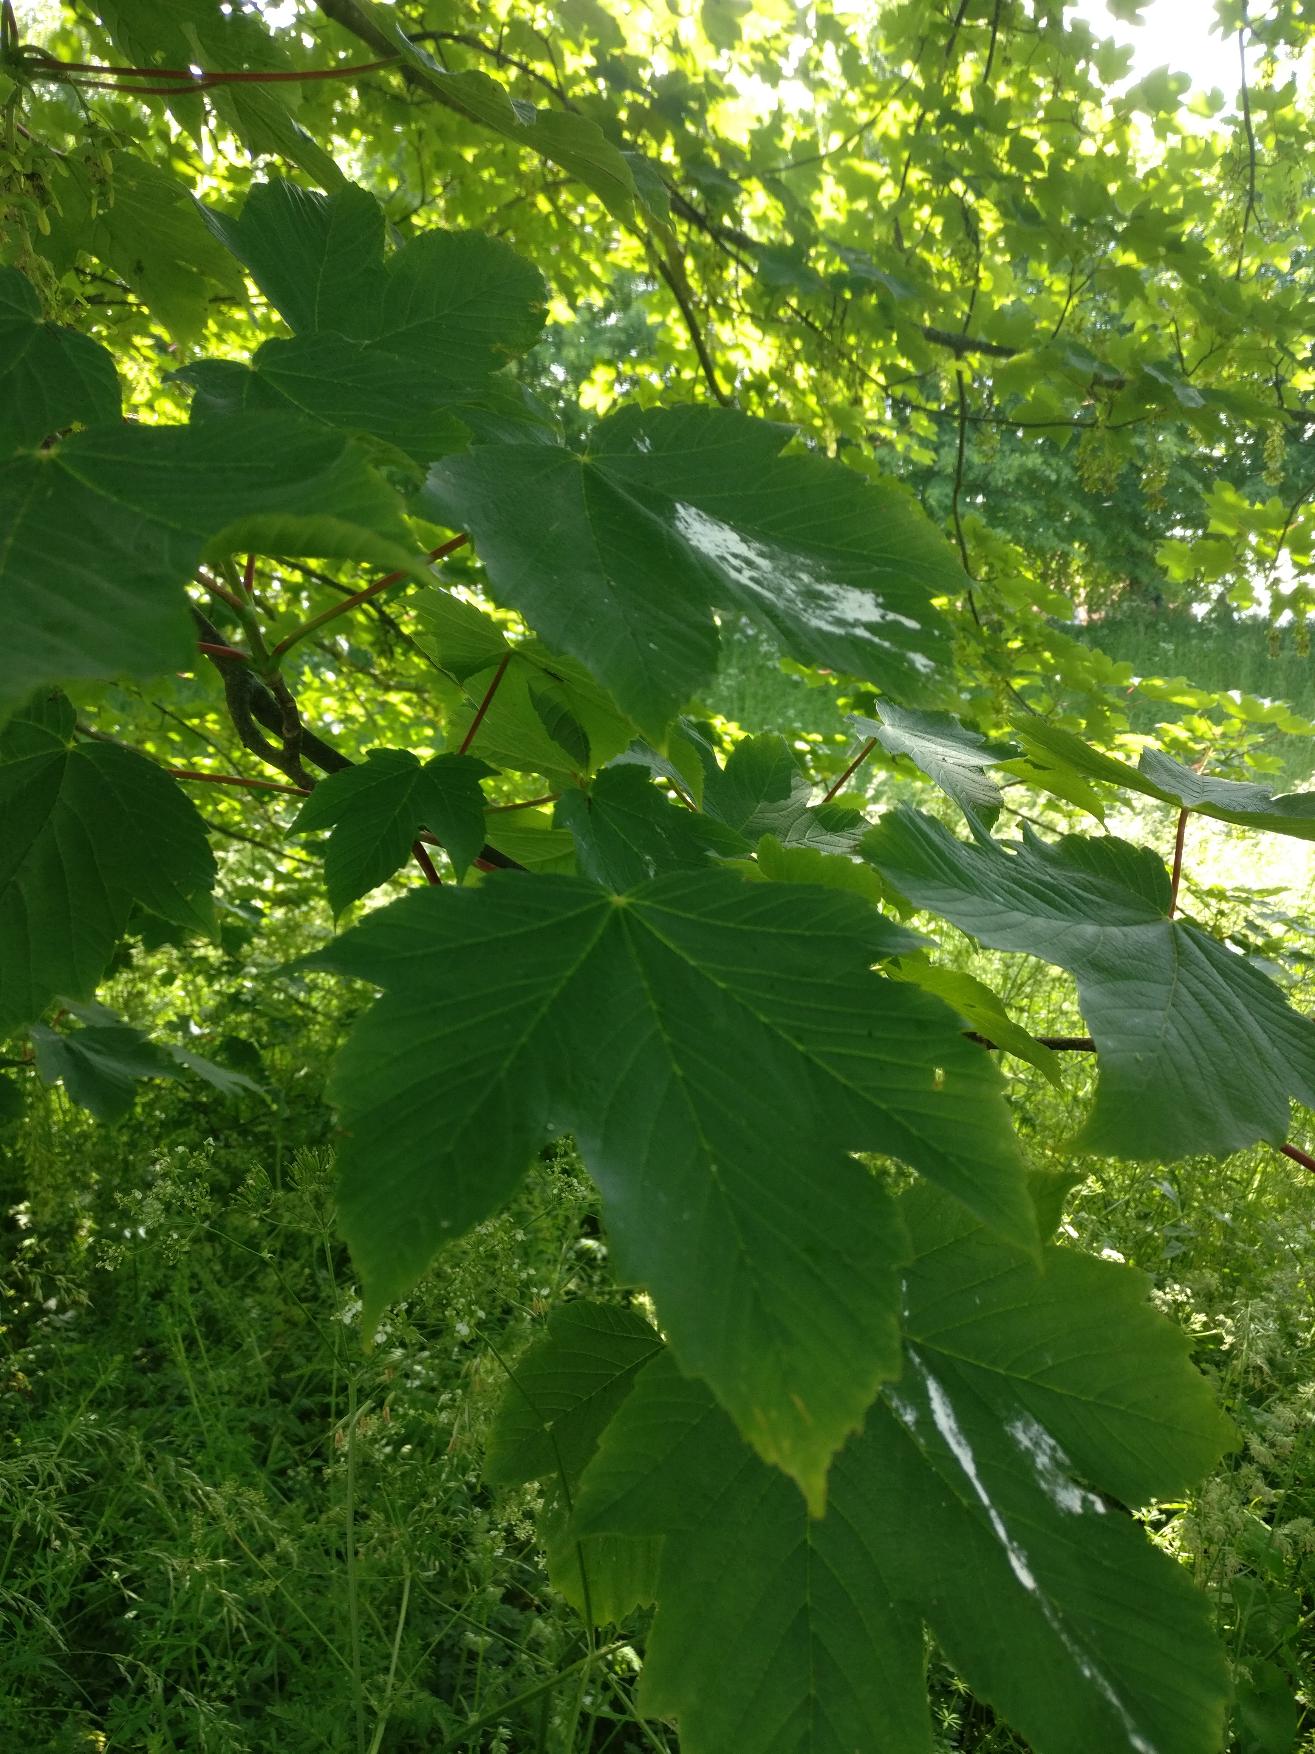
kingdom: Plantae
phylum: Tracheophyta
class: Magnoliopsida
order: Sapindales
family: Sapindaceae
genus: Acer
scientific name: Acer pseudoplatanus
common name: Ahorn
